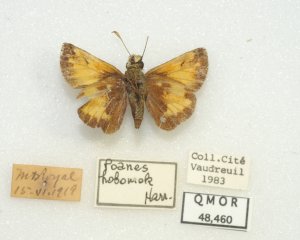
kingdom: Animalia
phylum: Arthropoda
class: Insecta
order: Lepidoptera
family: Hesperiidae
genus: Lon
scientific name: Lon hobomok
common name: Hobomok Skipper
